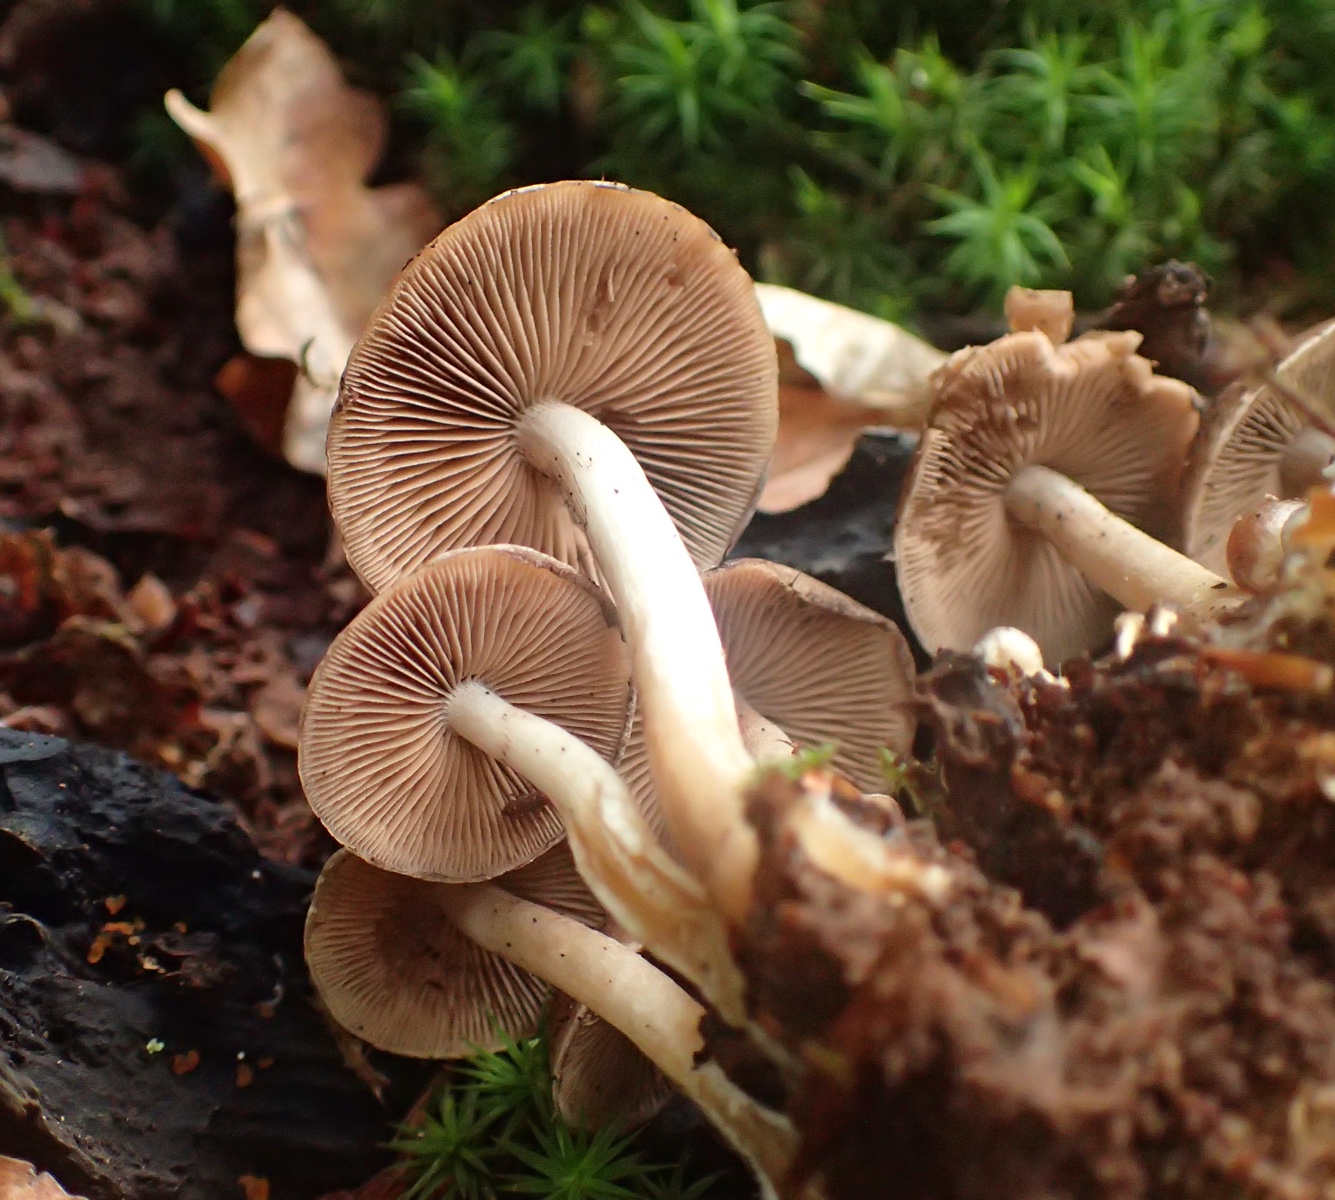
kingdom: Fungi
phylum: Basidiomycota
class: Agaricomycetes
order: Agaricales
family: Psathyrellaceae
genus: Psathyrella
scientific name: Psathyrella piluliformis
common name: lysstokket mørkhat
